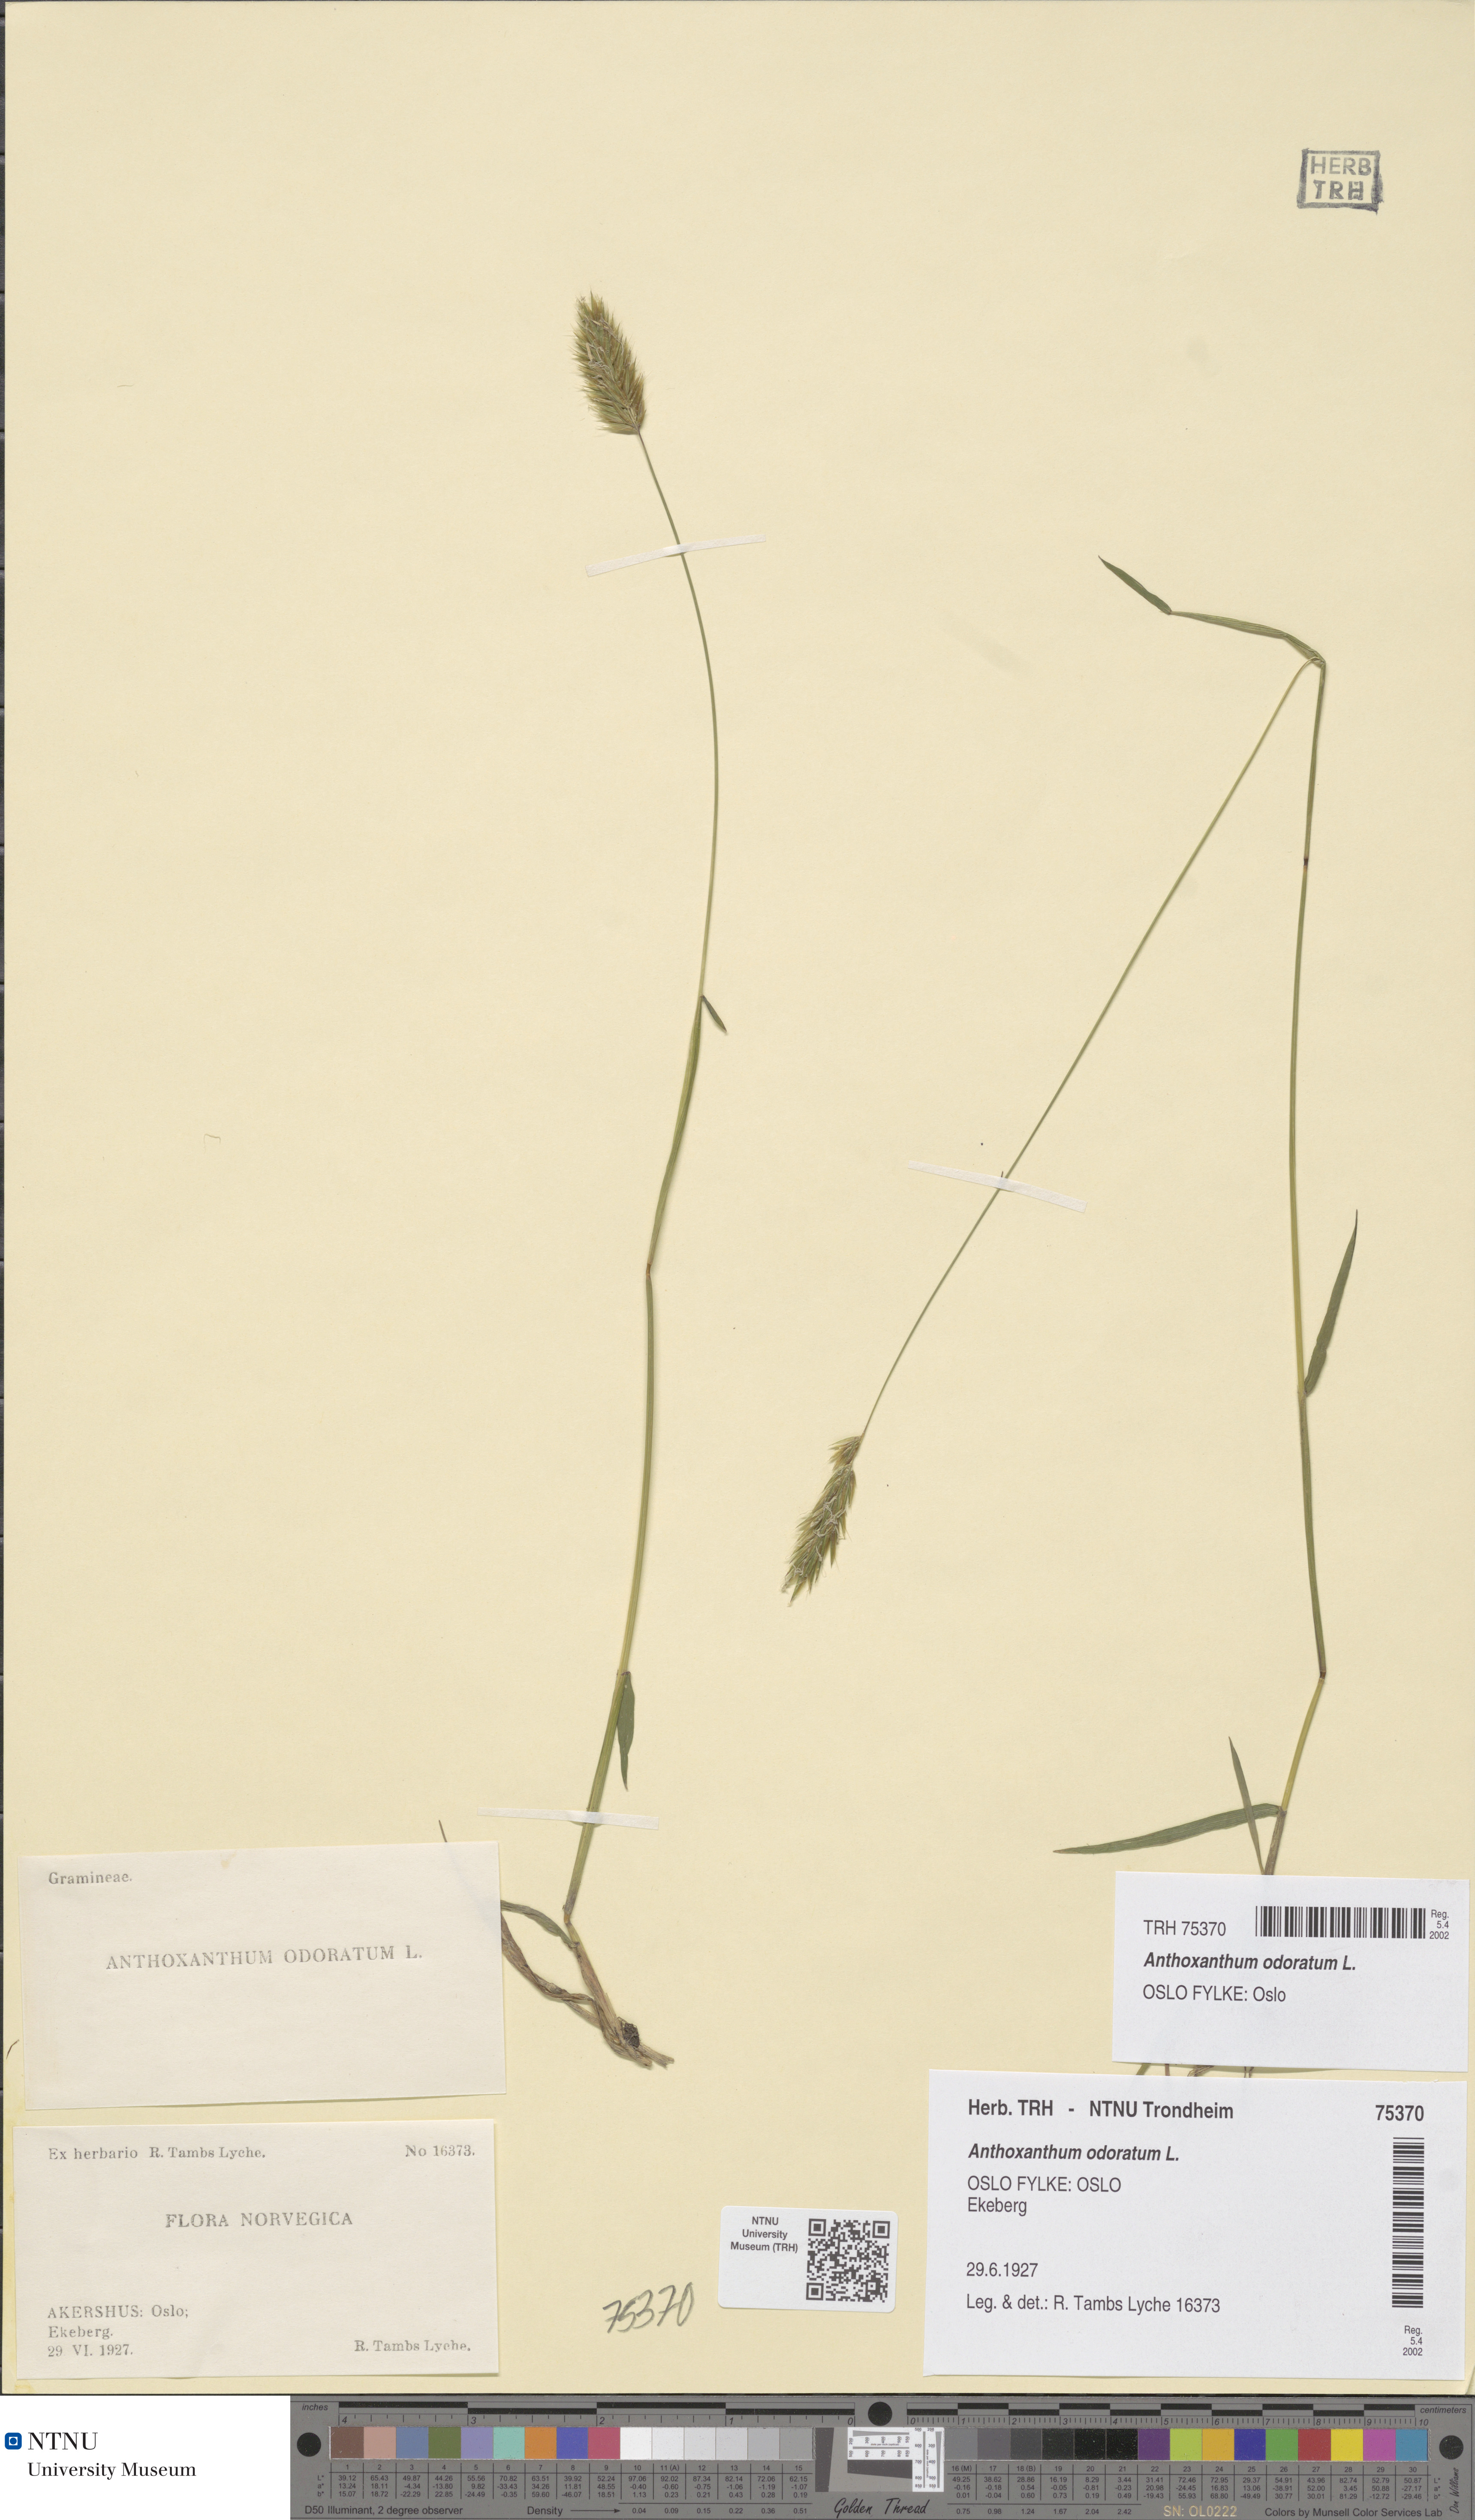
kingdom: Plantae
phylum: Tracheophyta
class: Liliopsida
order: Poales
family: Poaceae
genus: Anthoxanthum
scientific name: Anthoxanthum odoratum
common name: Sweet vernalgrass
